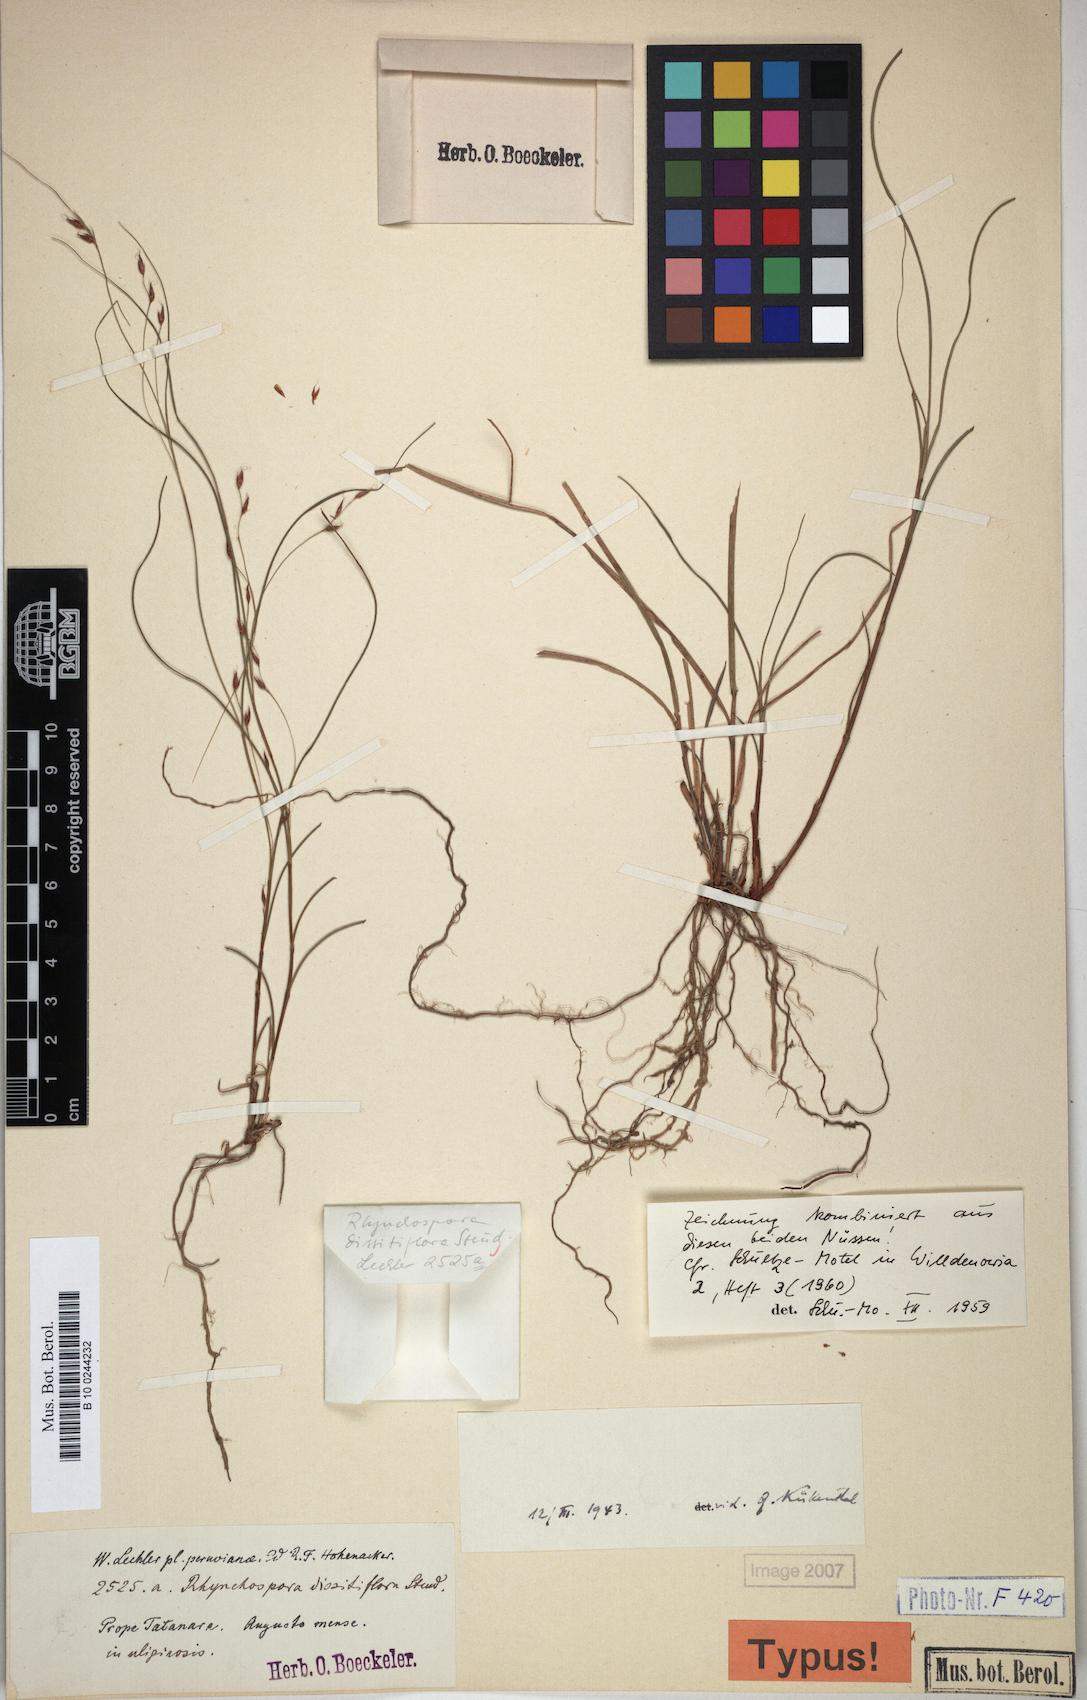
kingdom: Plantae
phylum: Tracheophyta
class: Liliopsida
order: Poales
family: Cyperaceae
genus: Rhynchospora
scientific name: Rhynchospora dissitiflora
